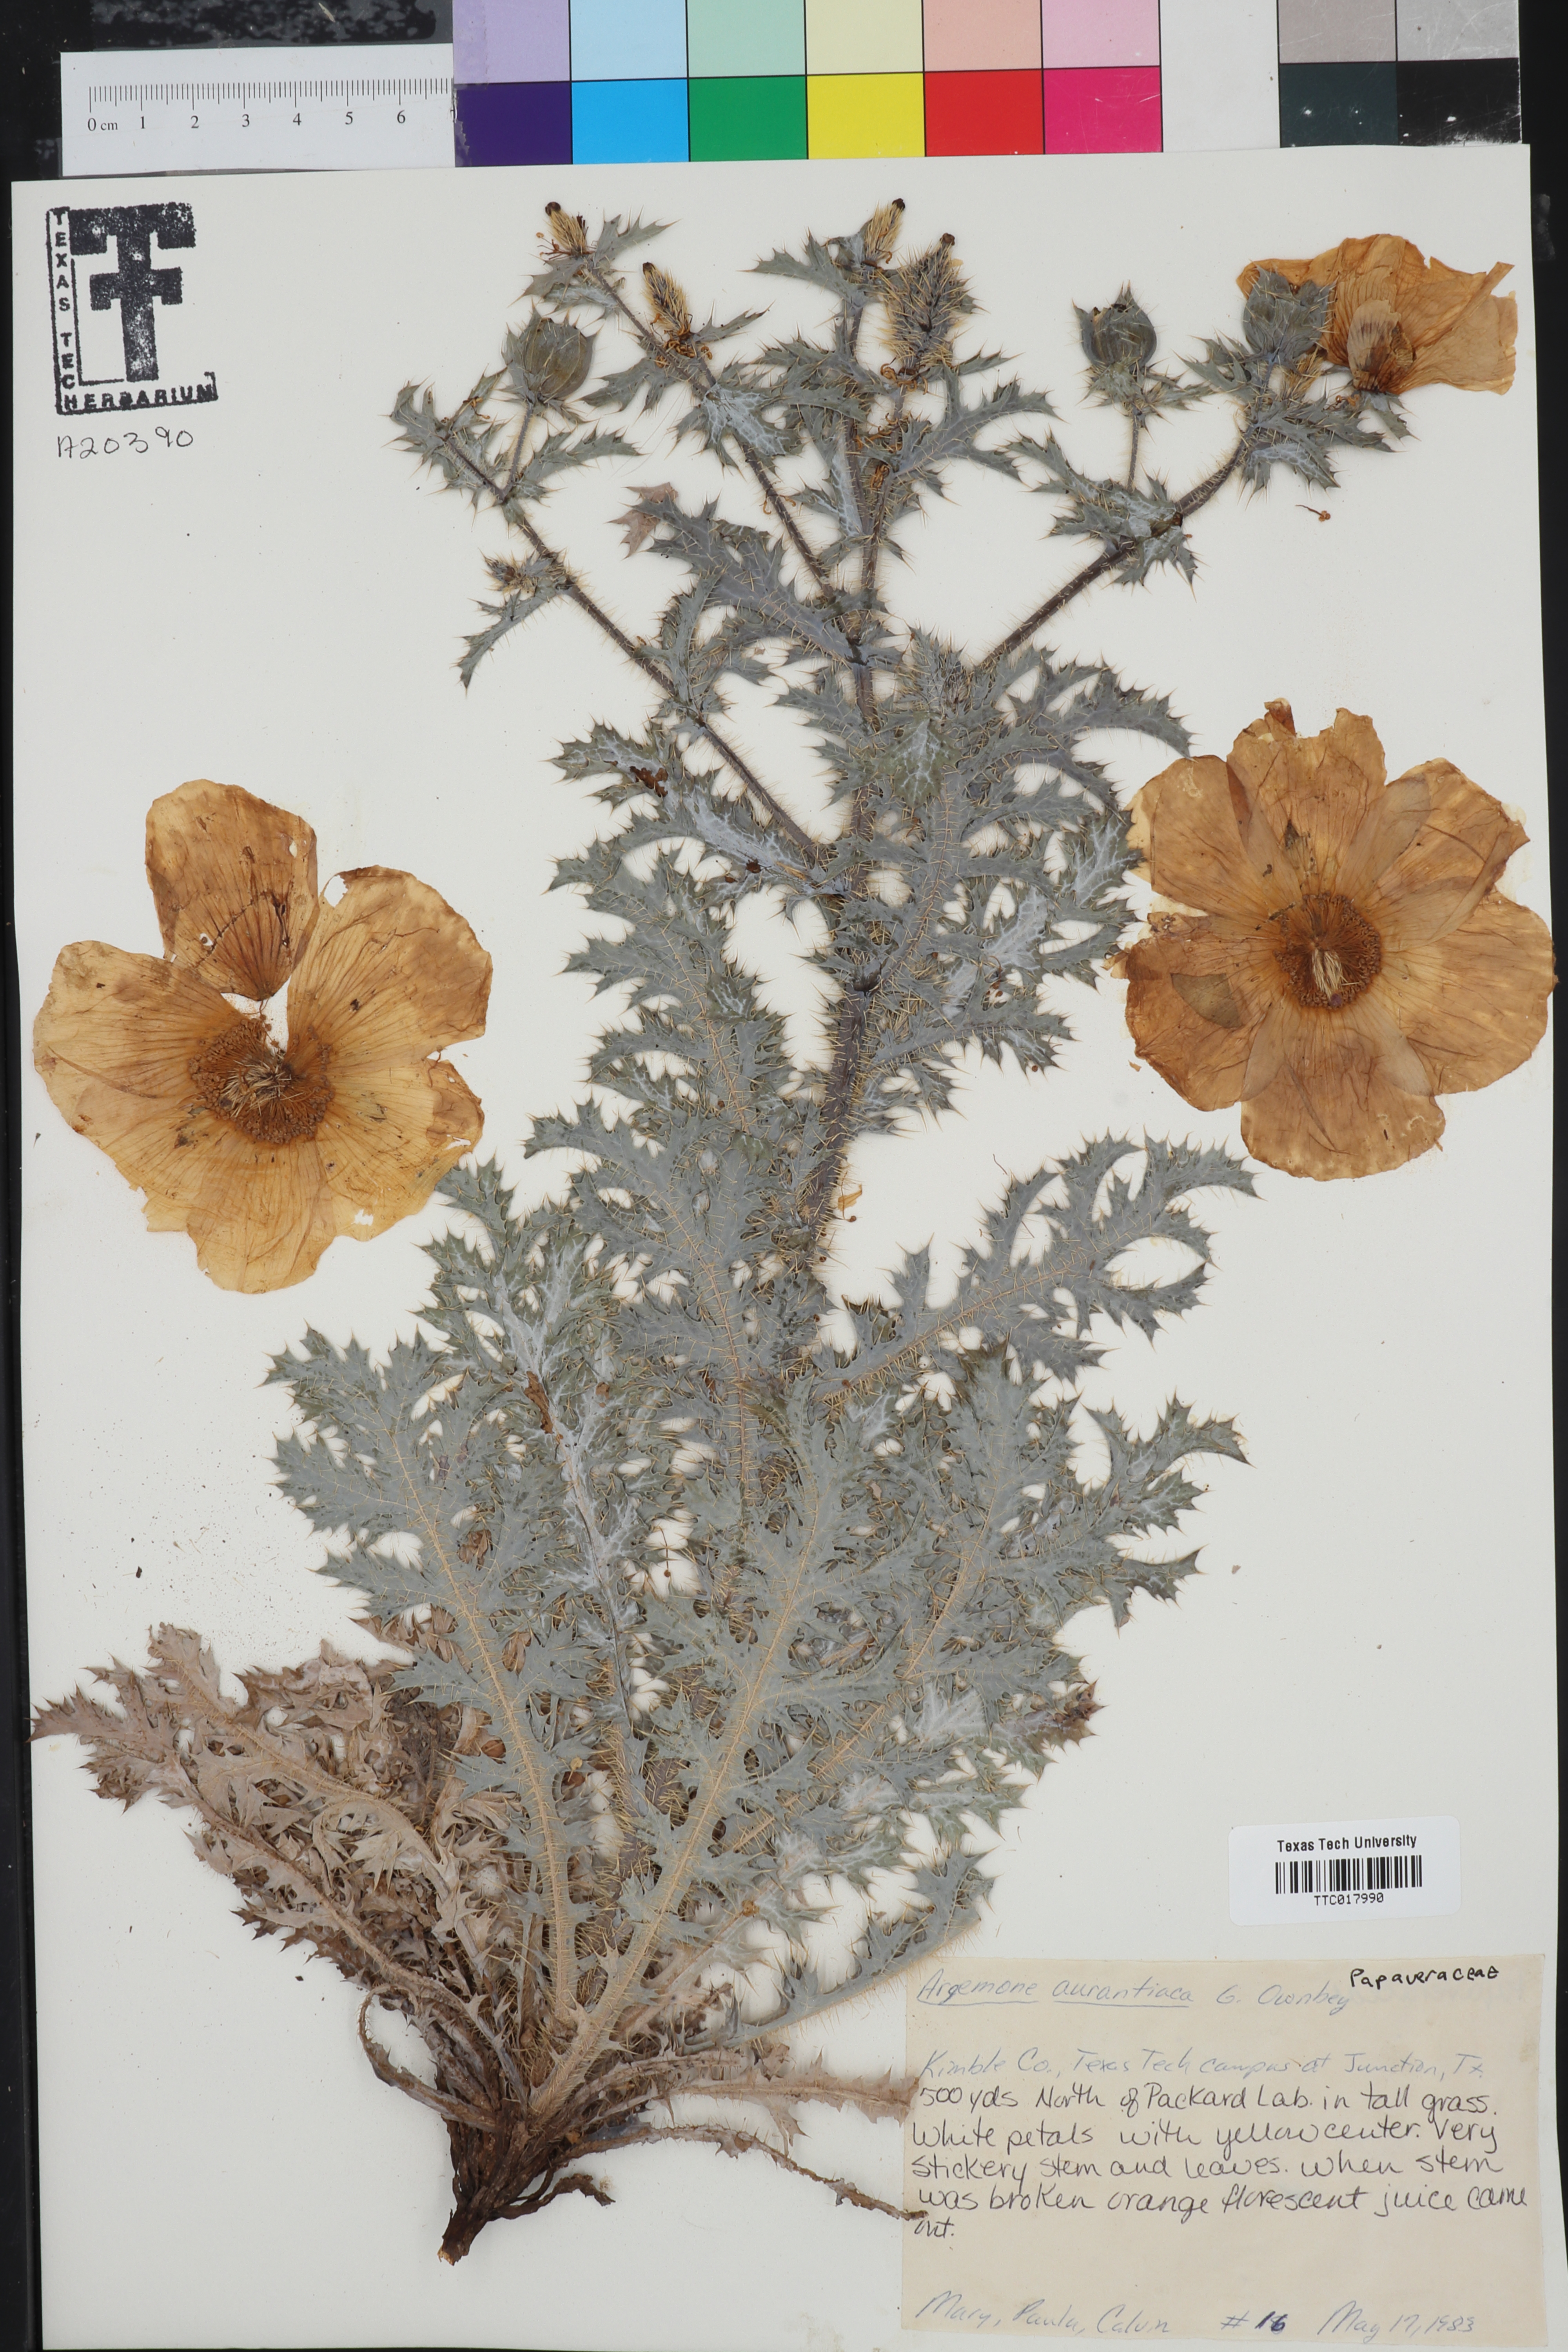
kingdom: Plantae
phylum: Tracheophyta
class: Magnoliopsida
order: Ranunculales
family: Papaveraceae
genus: Argemone
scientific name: Argemone aurantiaca
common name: Texas prickly-poppy
